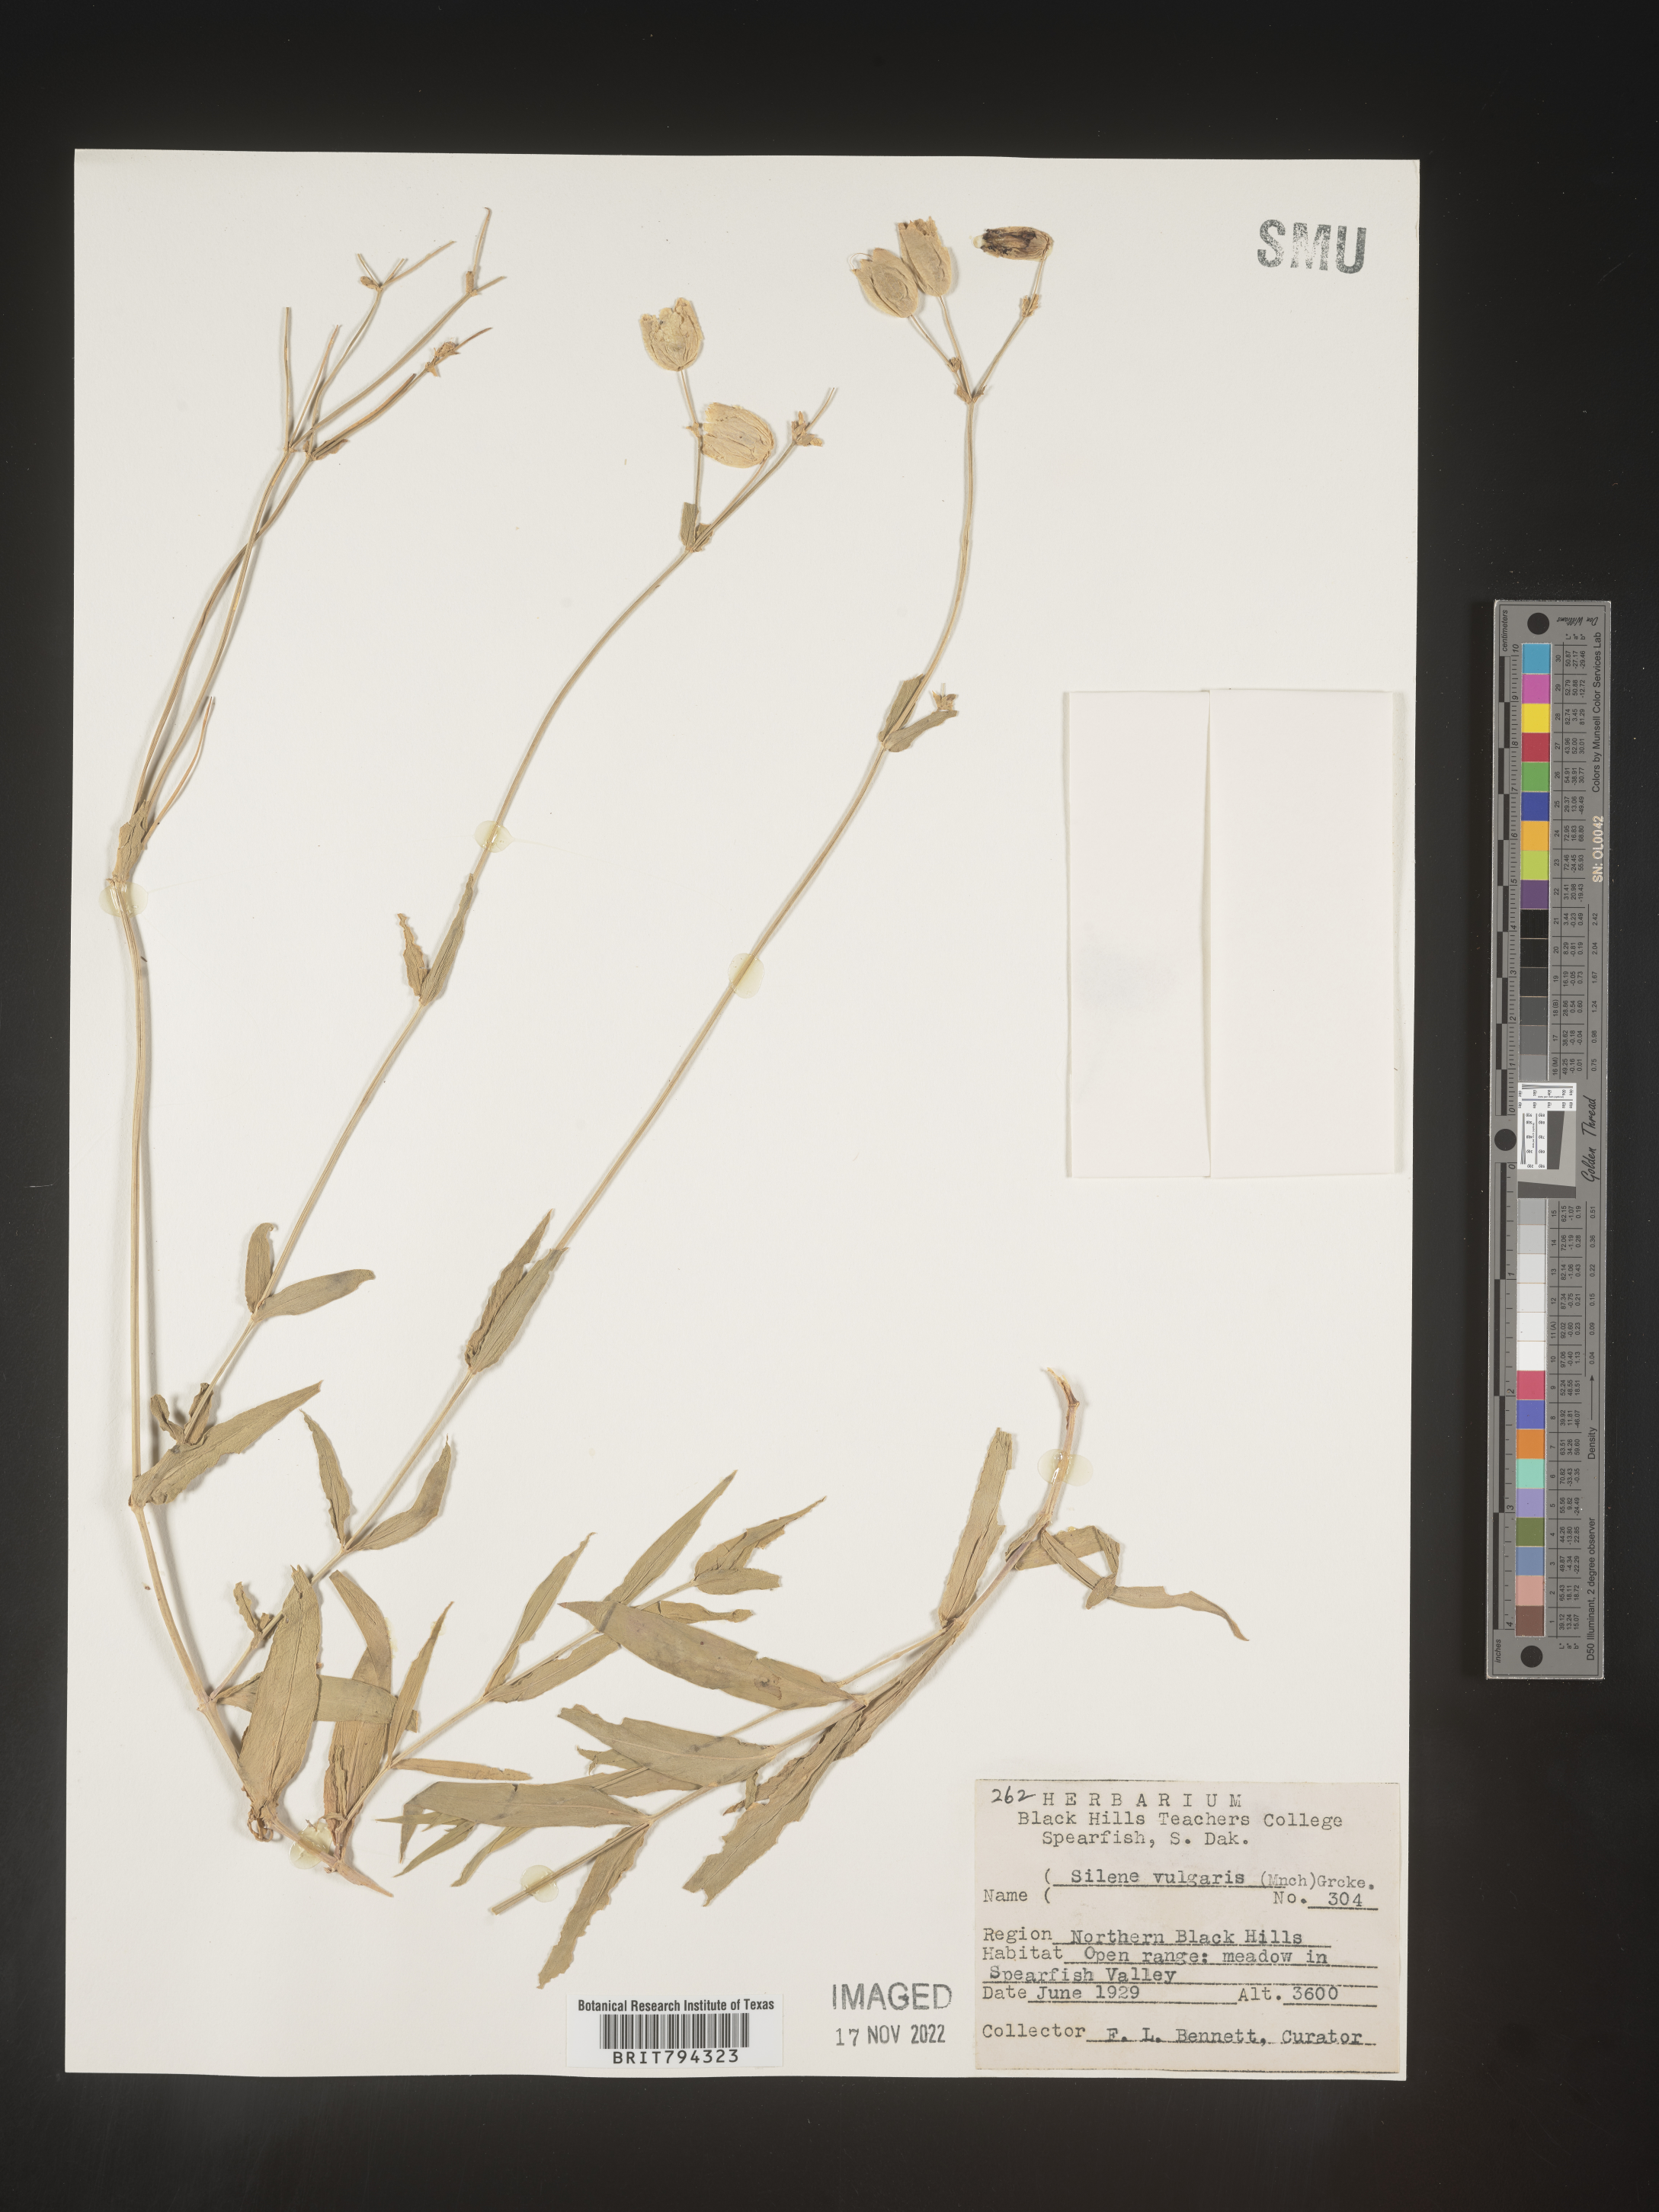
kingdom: Plantae
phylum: Tracheophyta
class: Magnoliopsida
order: Caryophyllales
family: Caryophyllaceae
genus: Silene
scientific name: Silene vulgaris
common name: Bladder campion
